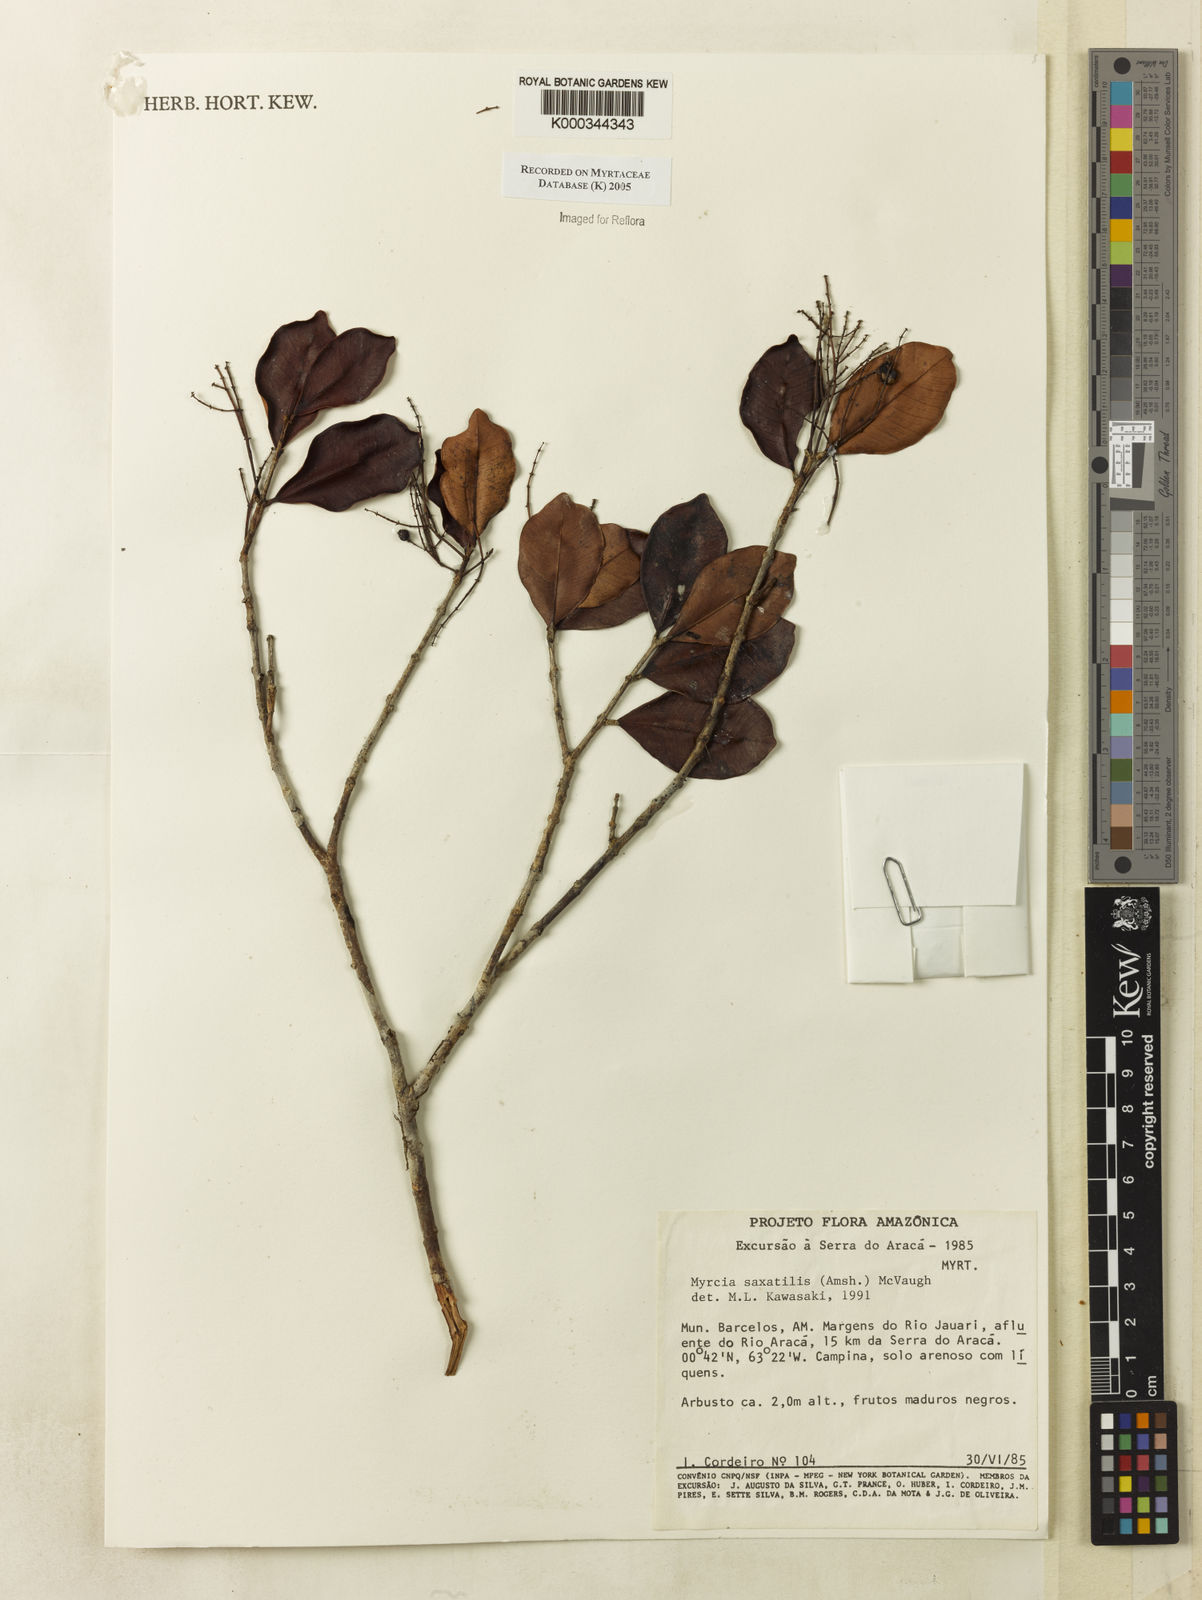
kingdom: Plantae
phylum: Tracheophyta
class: Magnoliopsida
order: Myrtales
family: Myrtaceae
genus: Myrcia
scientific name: Myrcia saxatilis
